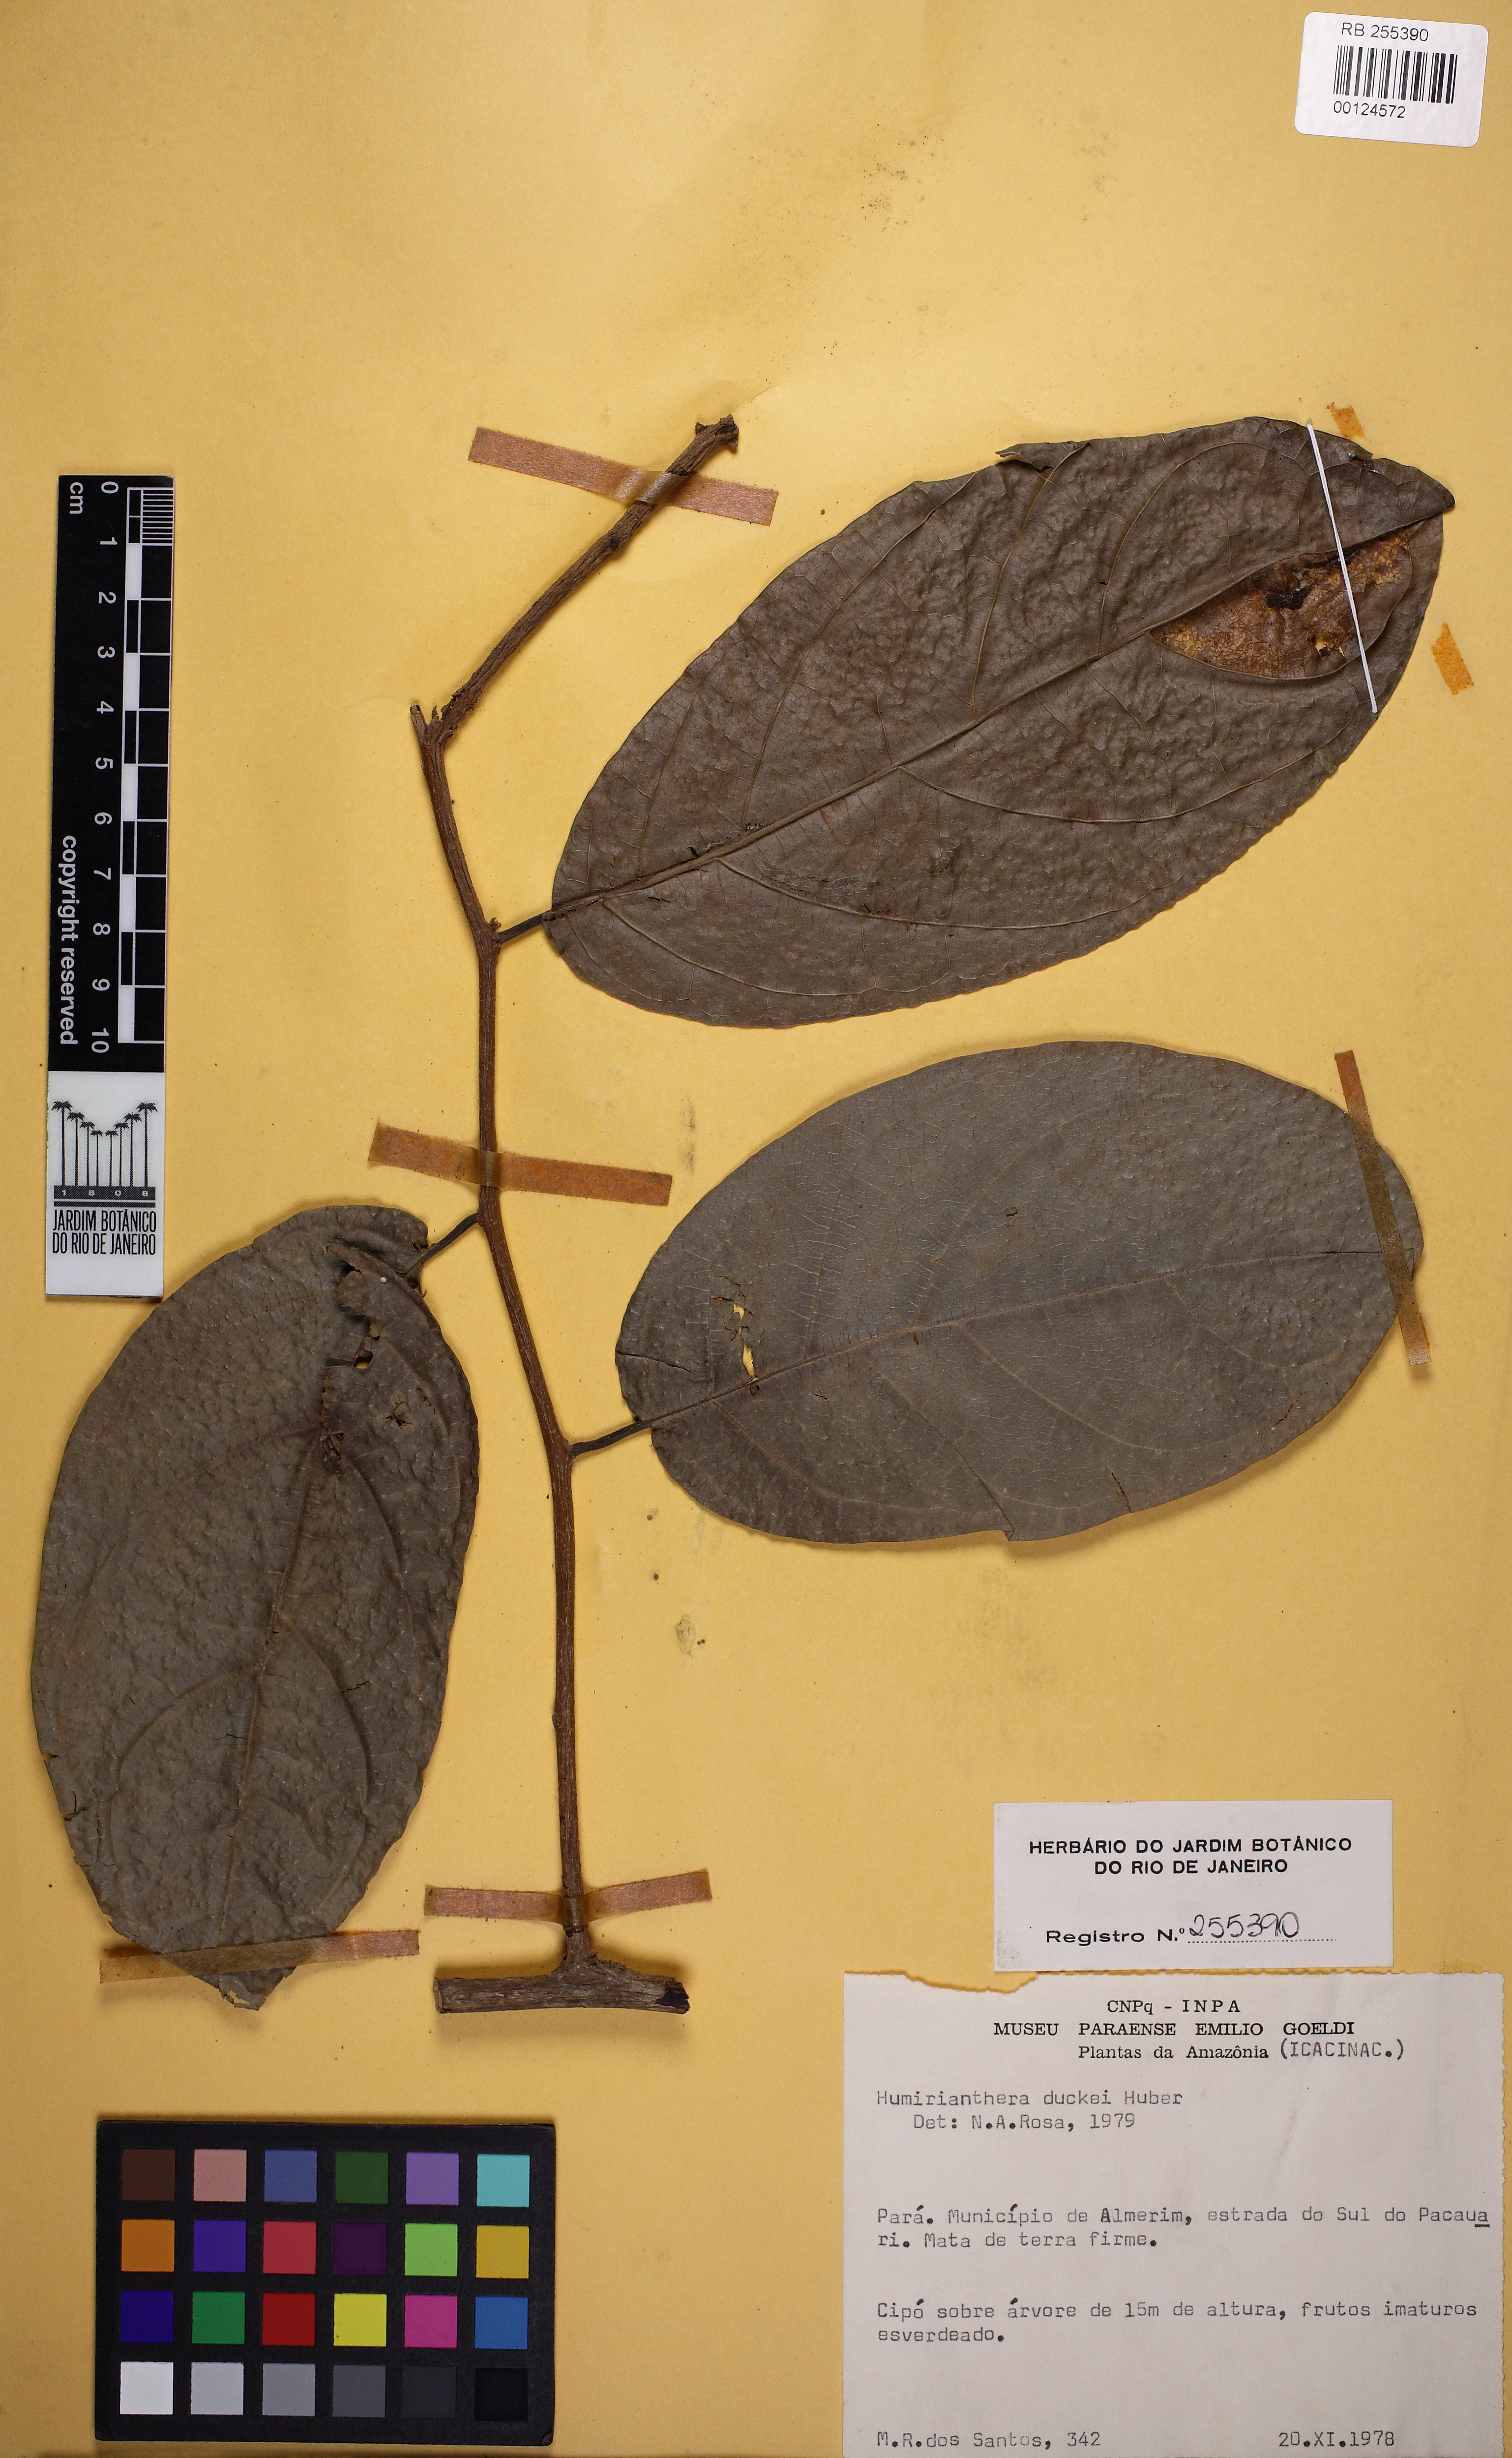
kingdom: Plantae
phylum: Tracheophyta
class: Magnoliopsida
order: Icacinales
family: Icacinaceae
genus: Casimirella
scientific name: Casimirella ampla
